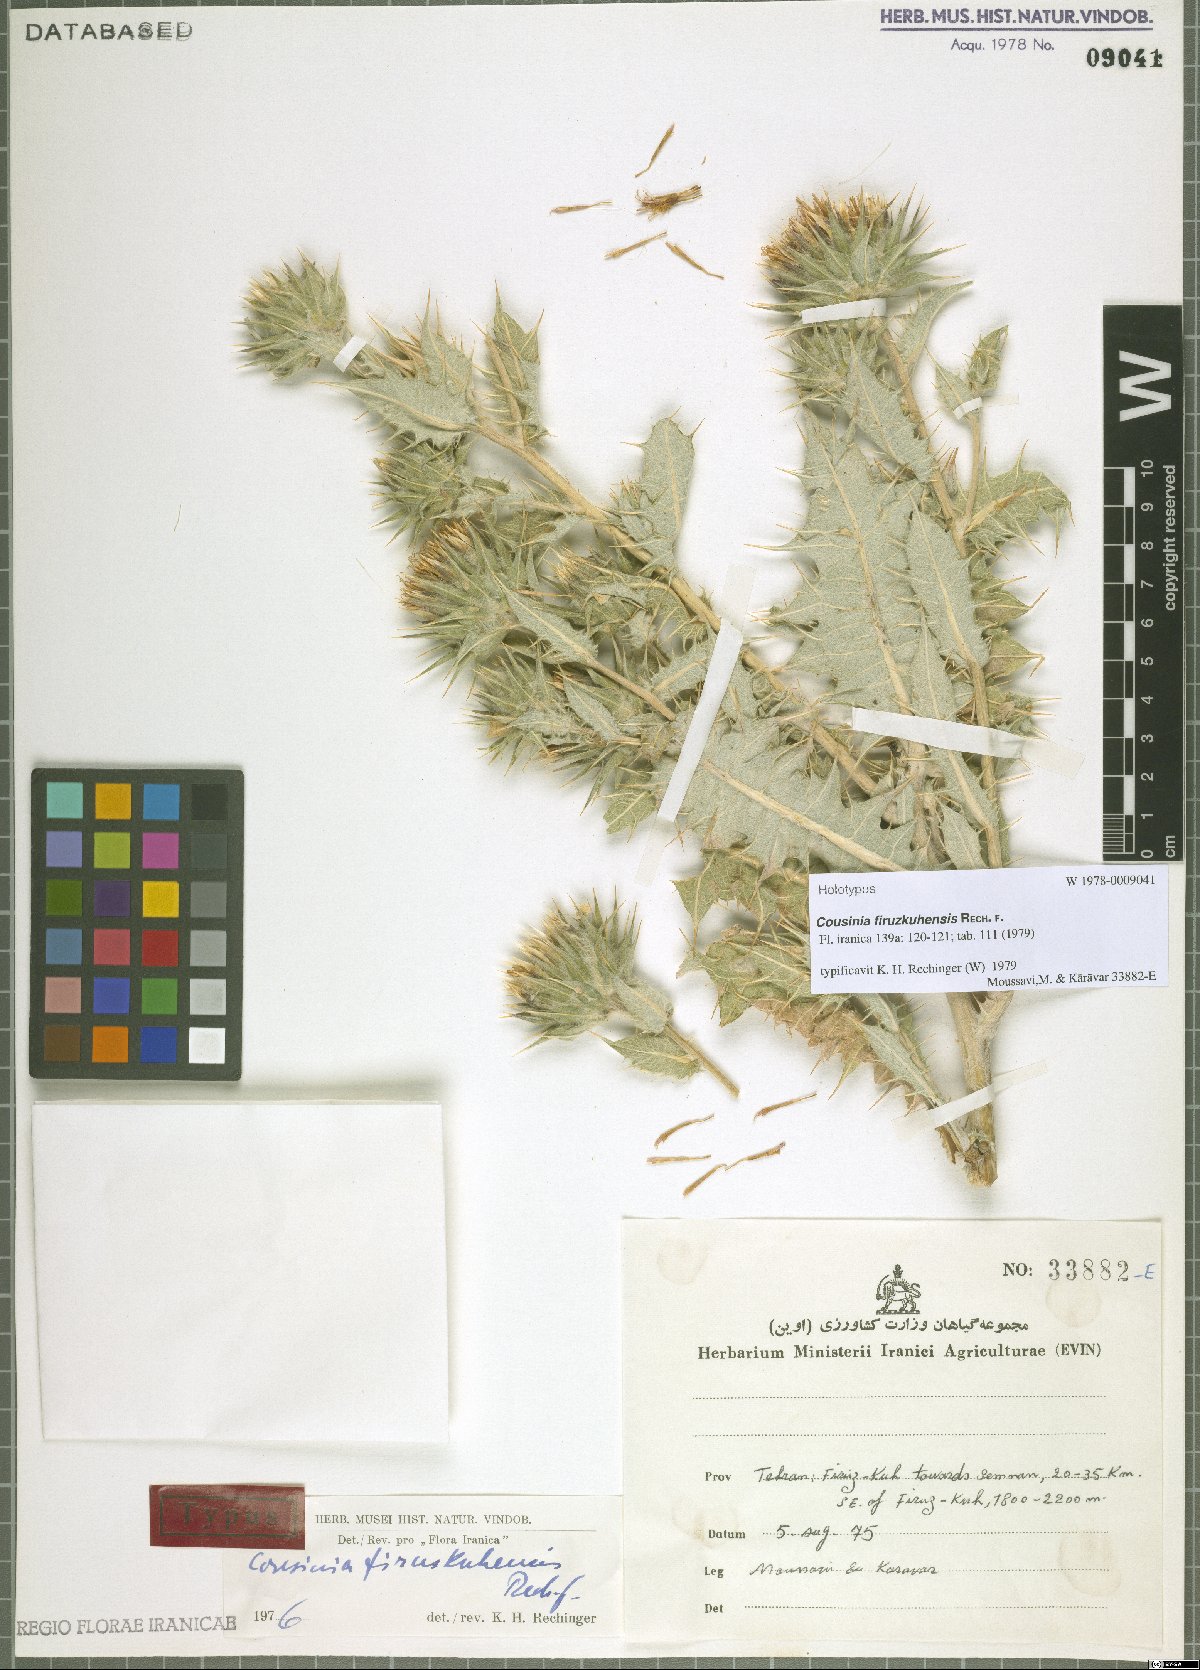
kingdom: Plantae
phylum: Tracheophyta
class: Magnoliopsida
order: Asterales
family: Asteraceae
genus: Cousinia
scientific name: Cousinia firuzkuhensis
